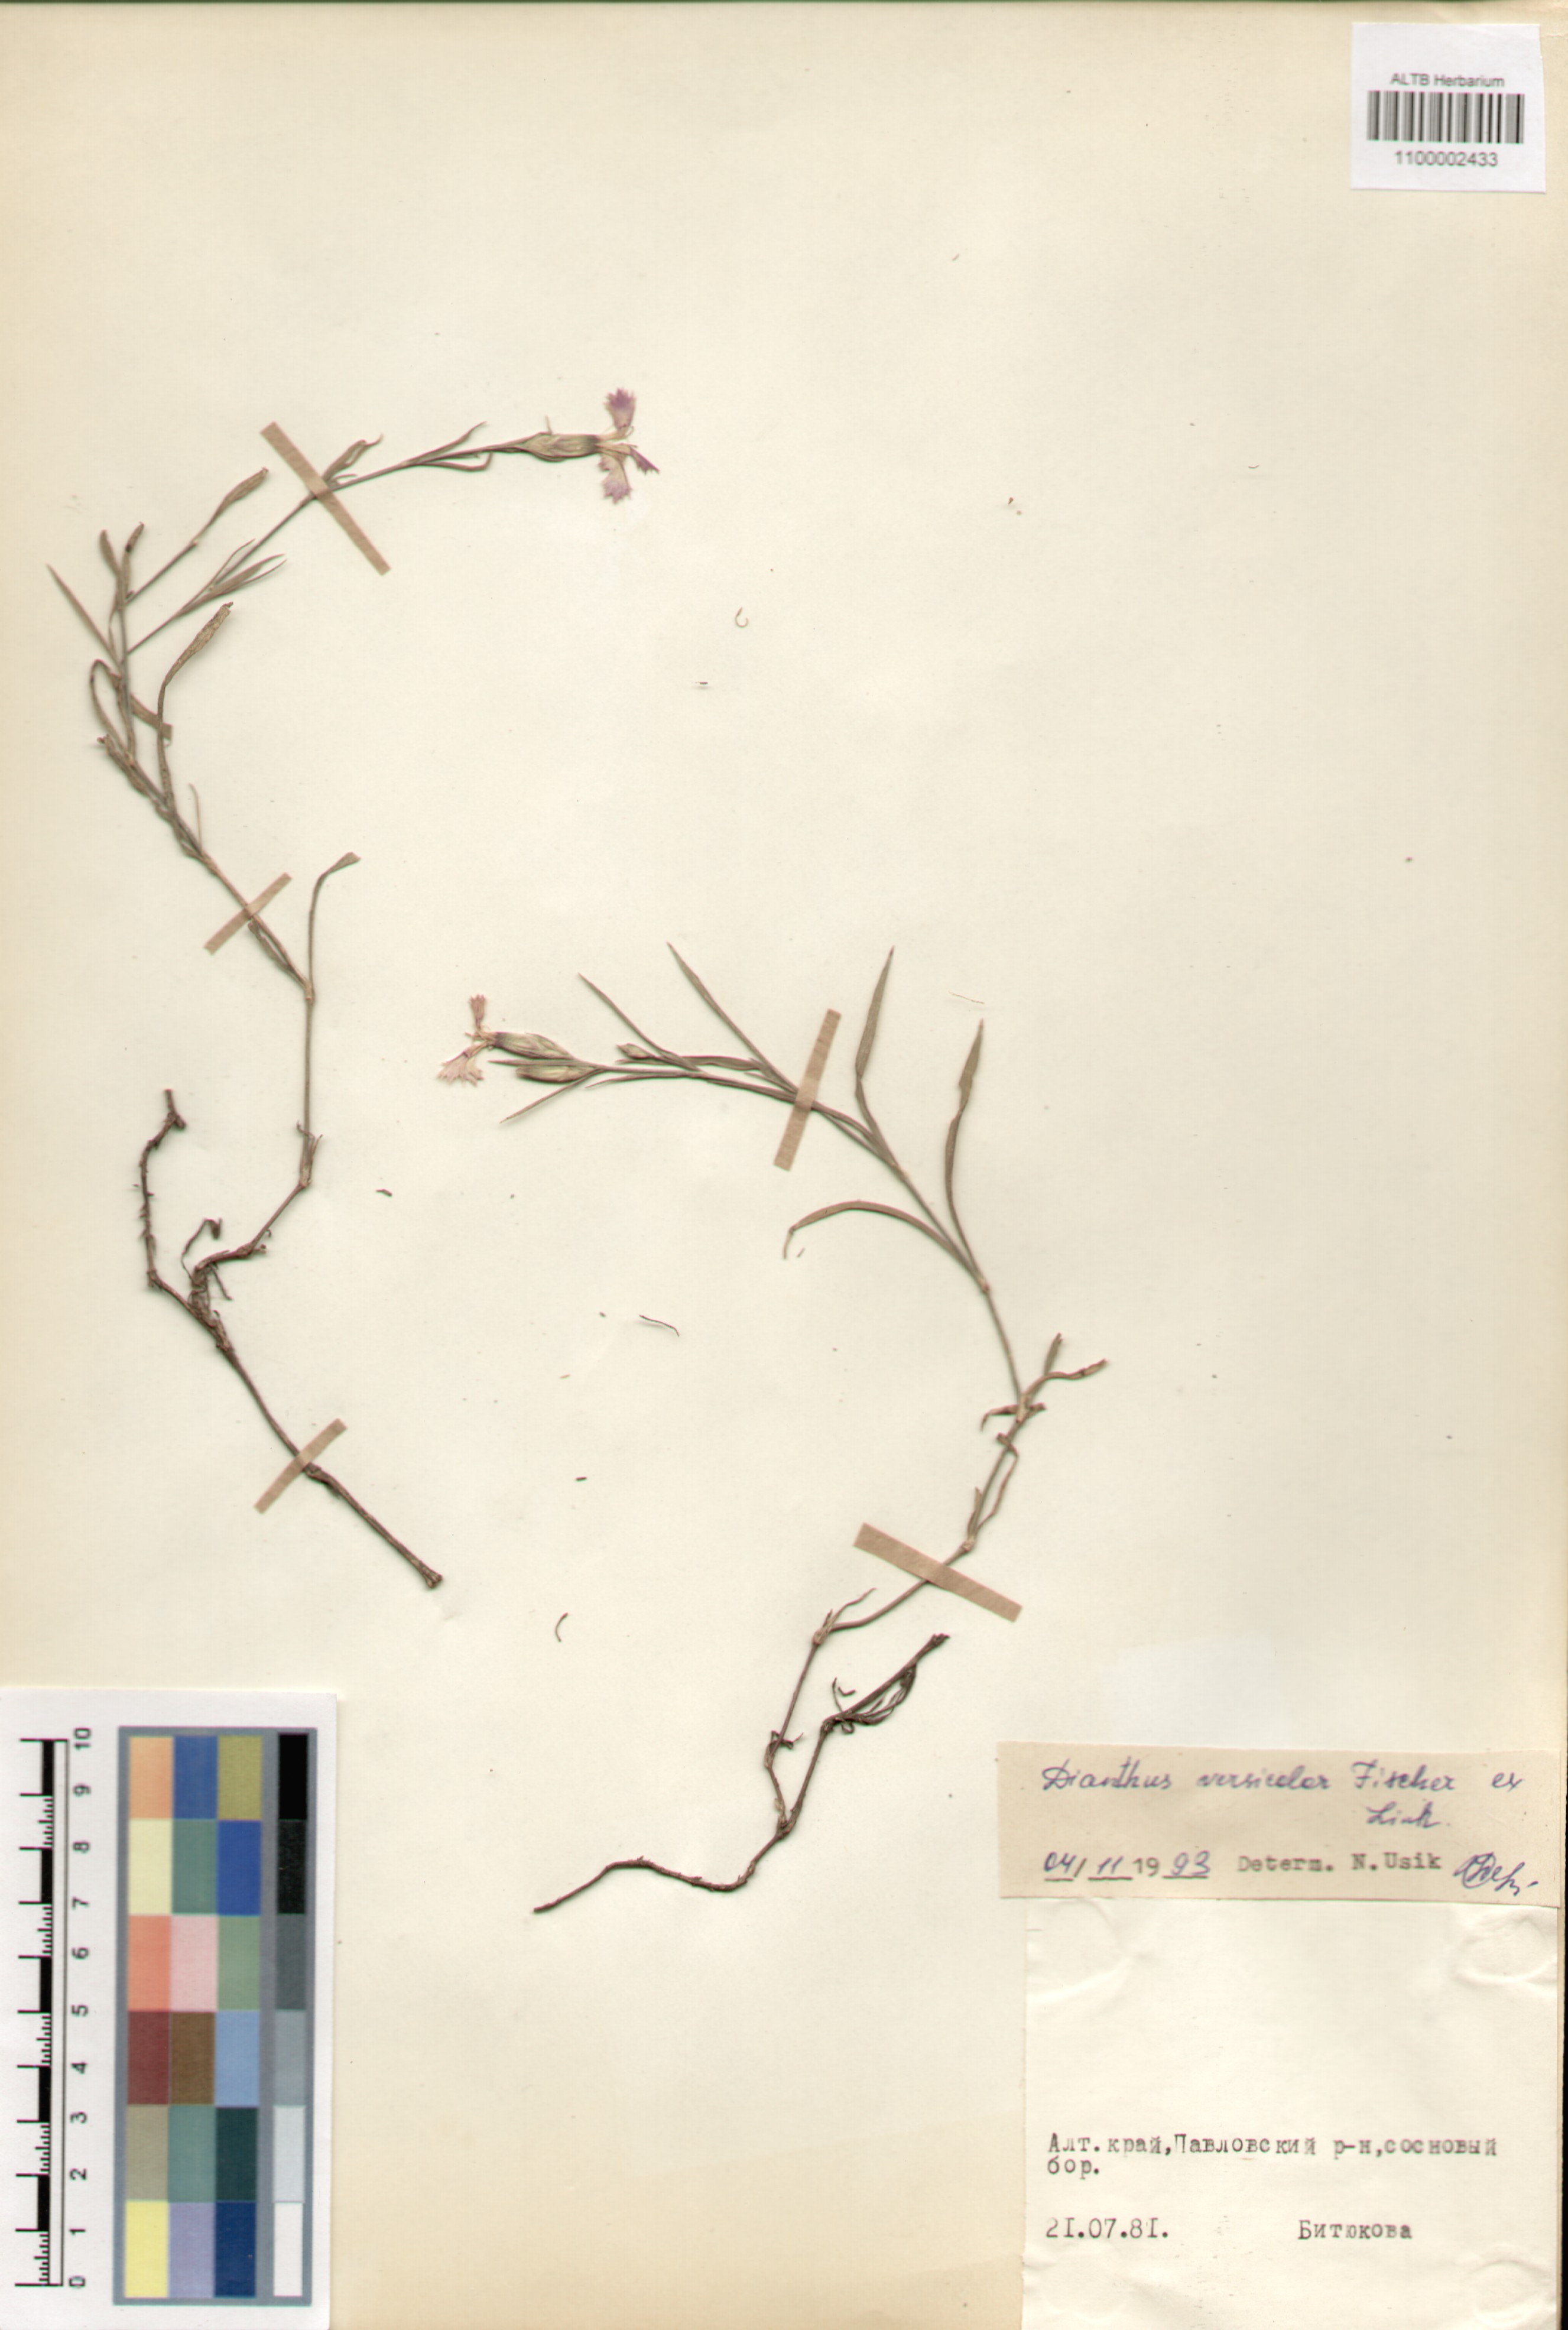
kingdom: Plantae
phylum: Tracheophyta
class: Magnoliopsida
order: Caryophyllales
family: Caryophyllaceae
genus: Dianthus
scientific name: Dianthus chinensis
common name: Rainbow pink
